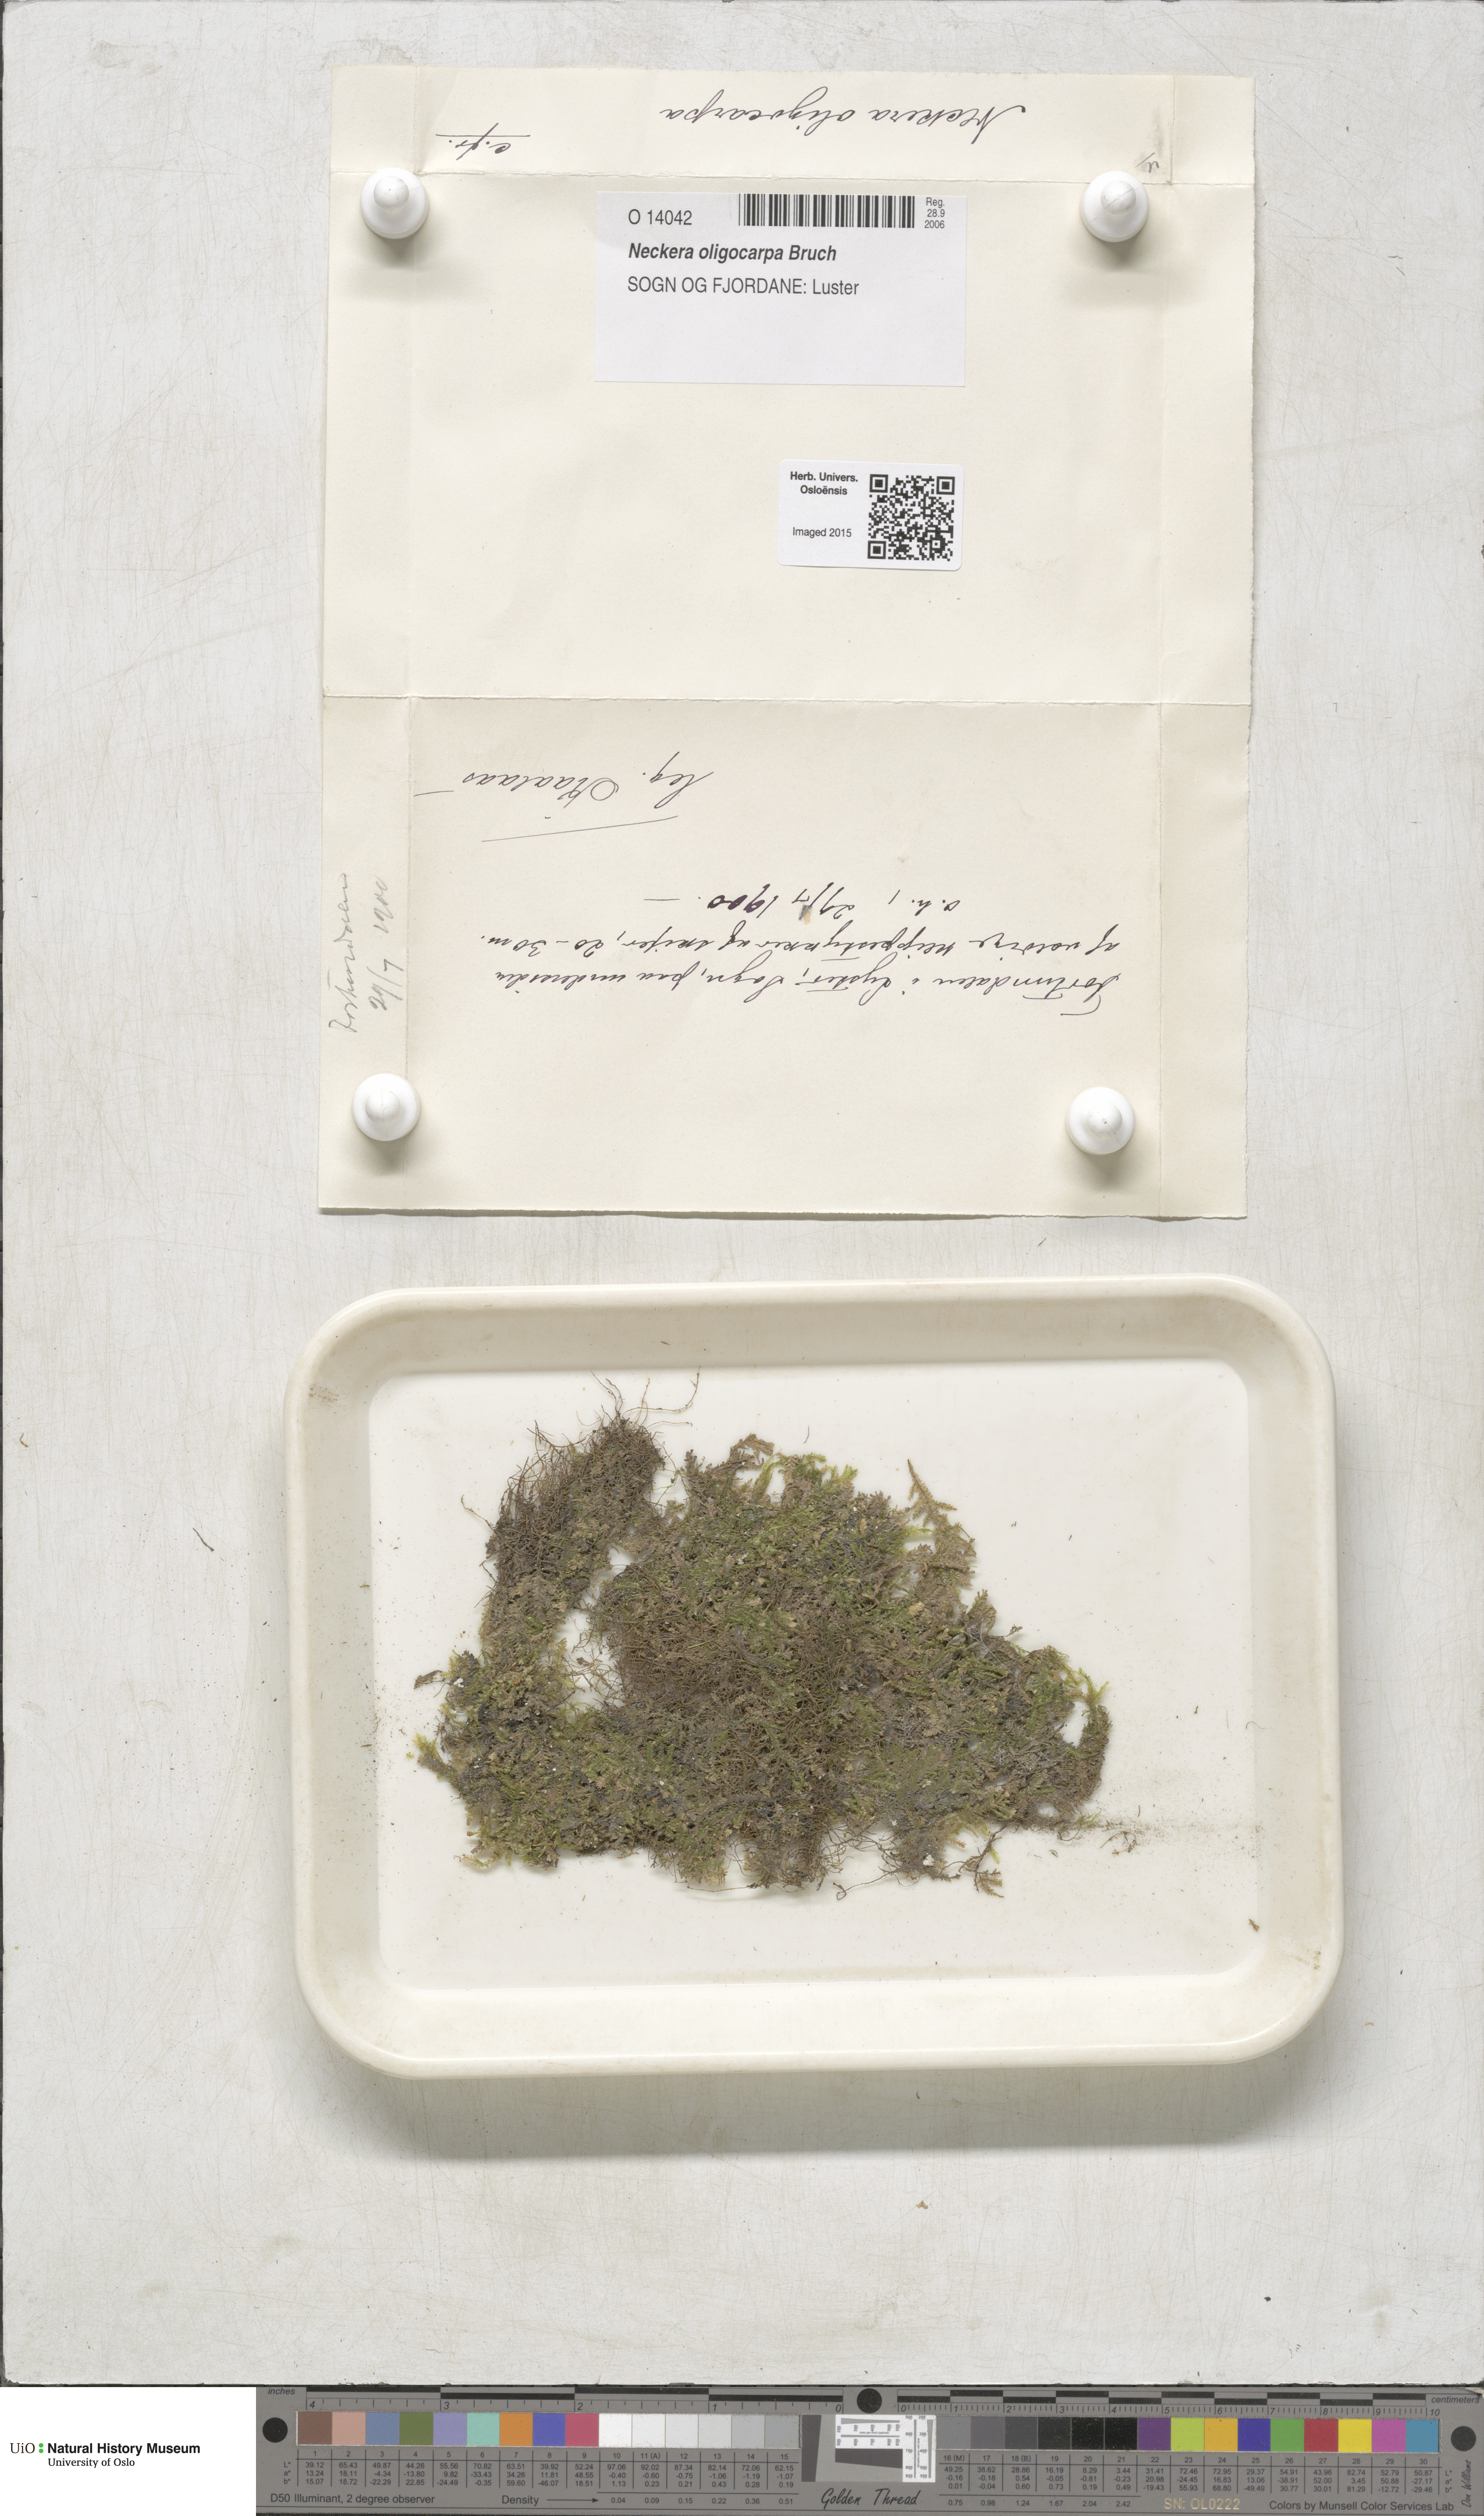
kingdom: Plantae
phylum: Bryophyta
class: Bryopsida
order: Hypnales
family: Neckeraceae
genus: Neckera
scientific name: Neckera oligocarpa
